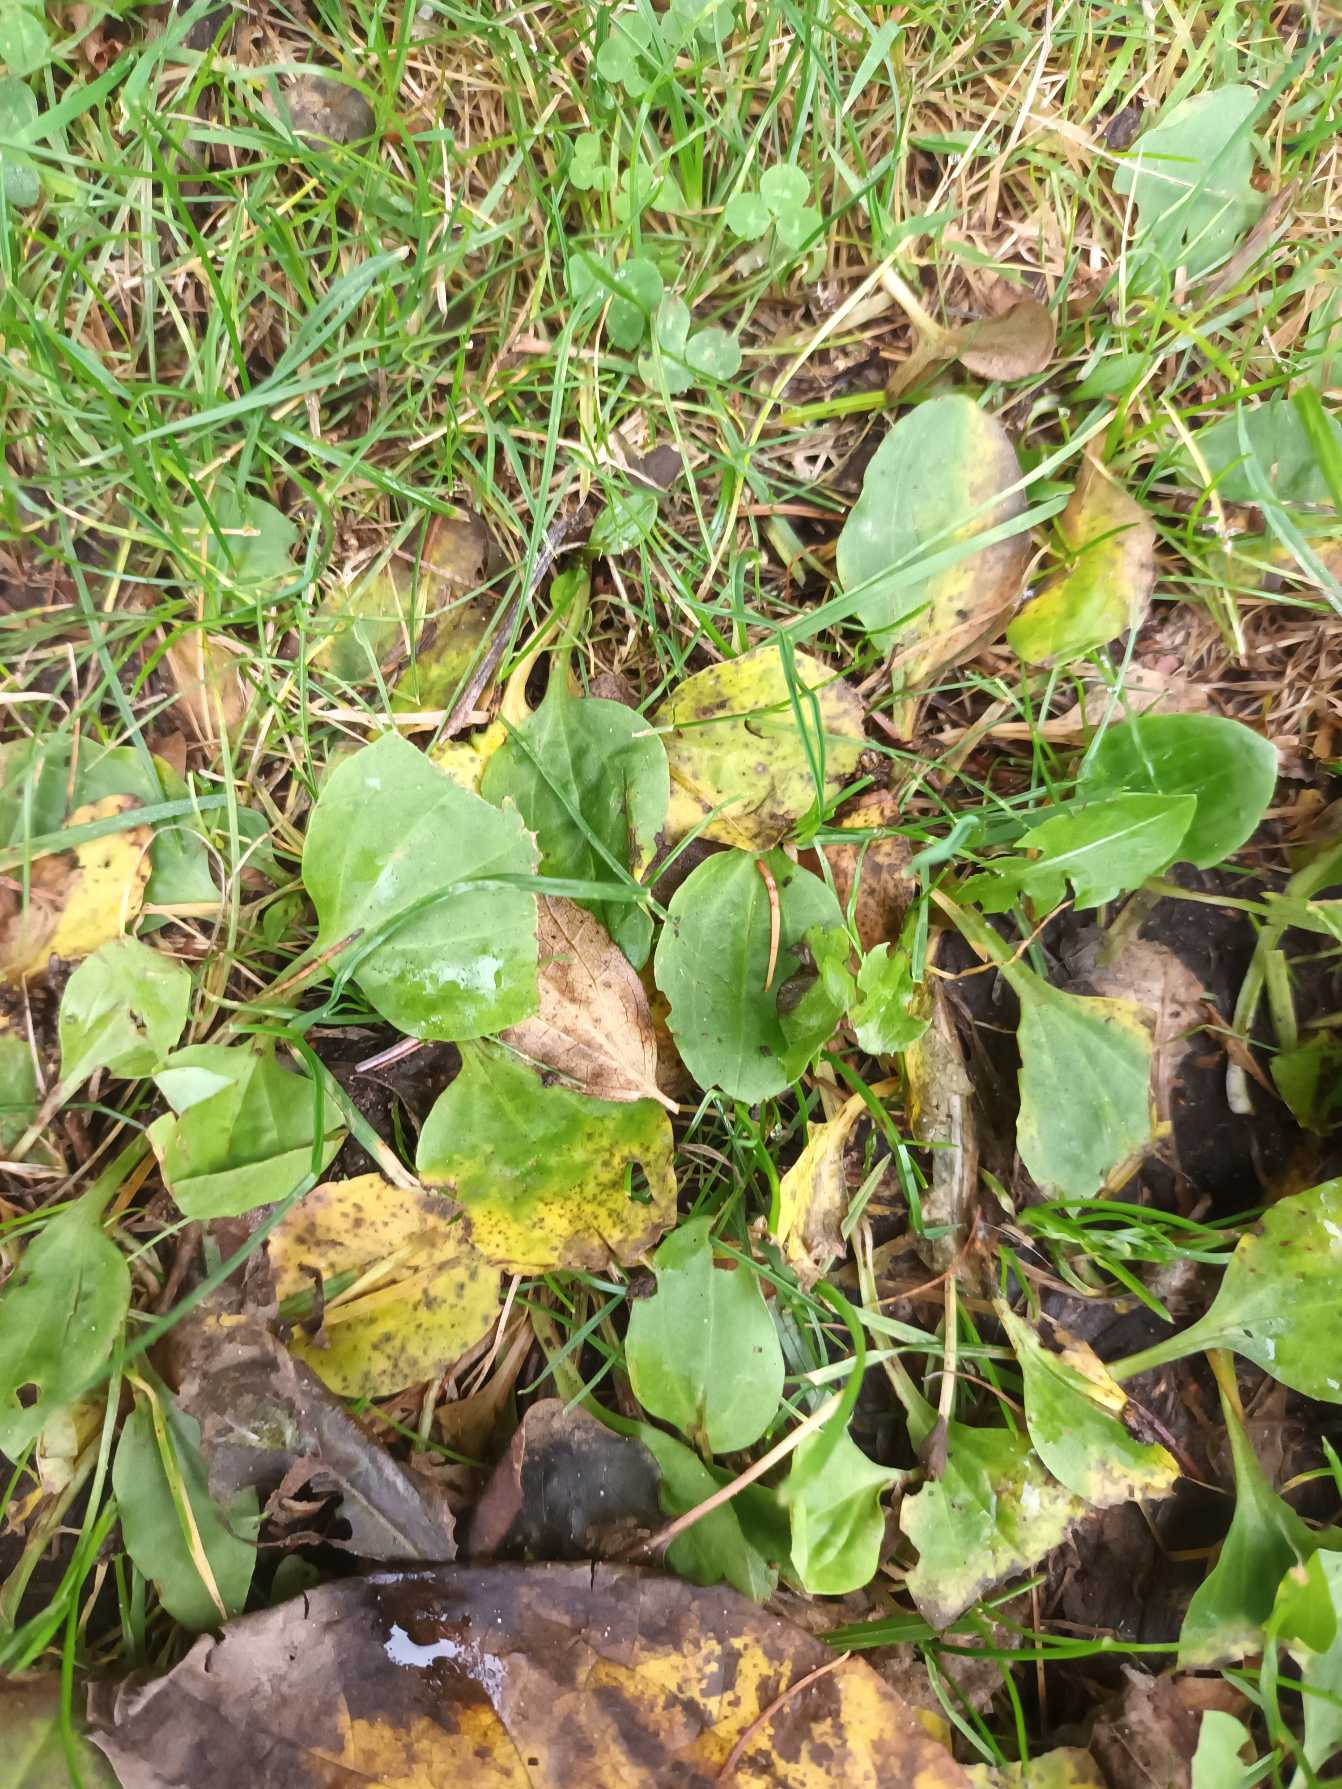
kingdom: Plantae
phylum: Tracheophyta
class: Magnoliopsida
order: Lamiales
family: Plantaginaceae
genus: Plantago
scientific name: Plantago major
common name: Glat vejbred
